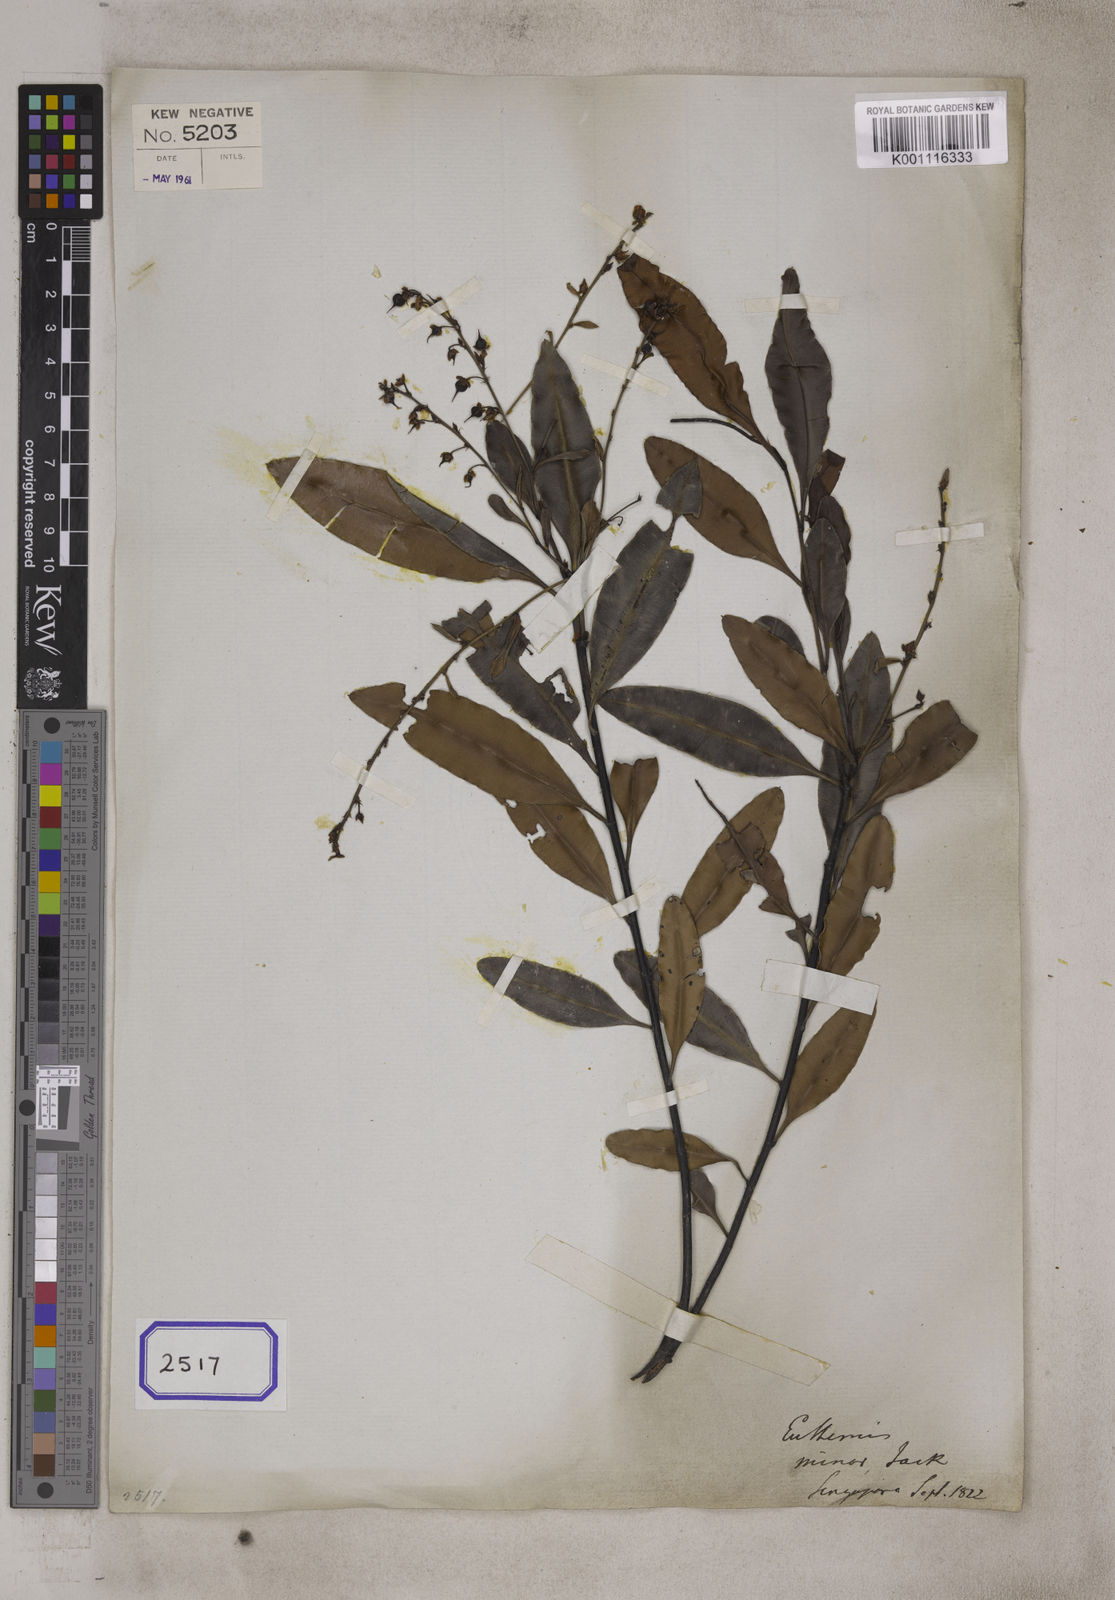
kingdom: Plantae
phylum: Tracheophyta
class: Magnoliopsida
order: Malpighiales
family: Ochnaceae
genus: Euthemis
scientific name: Euthemis minor
